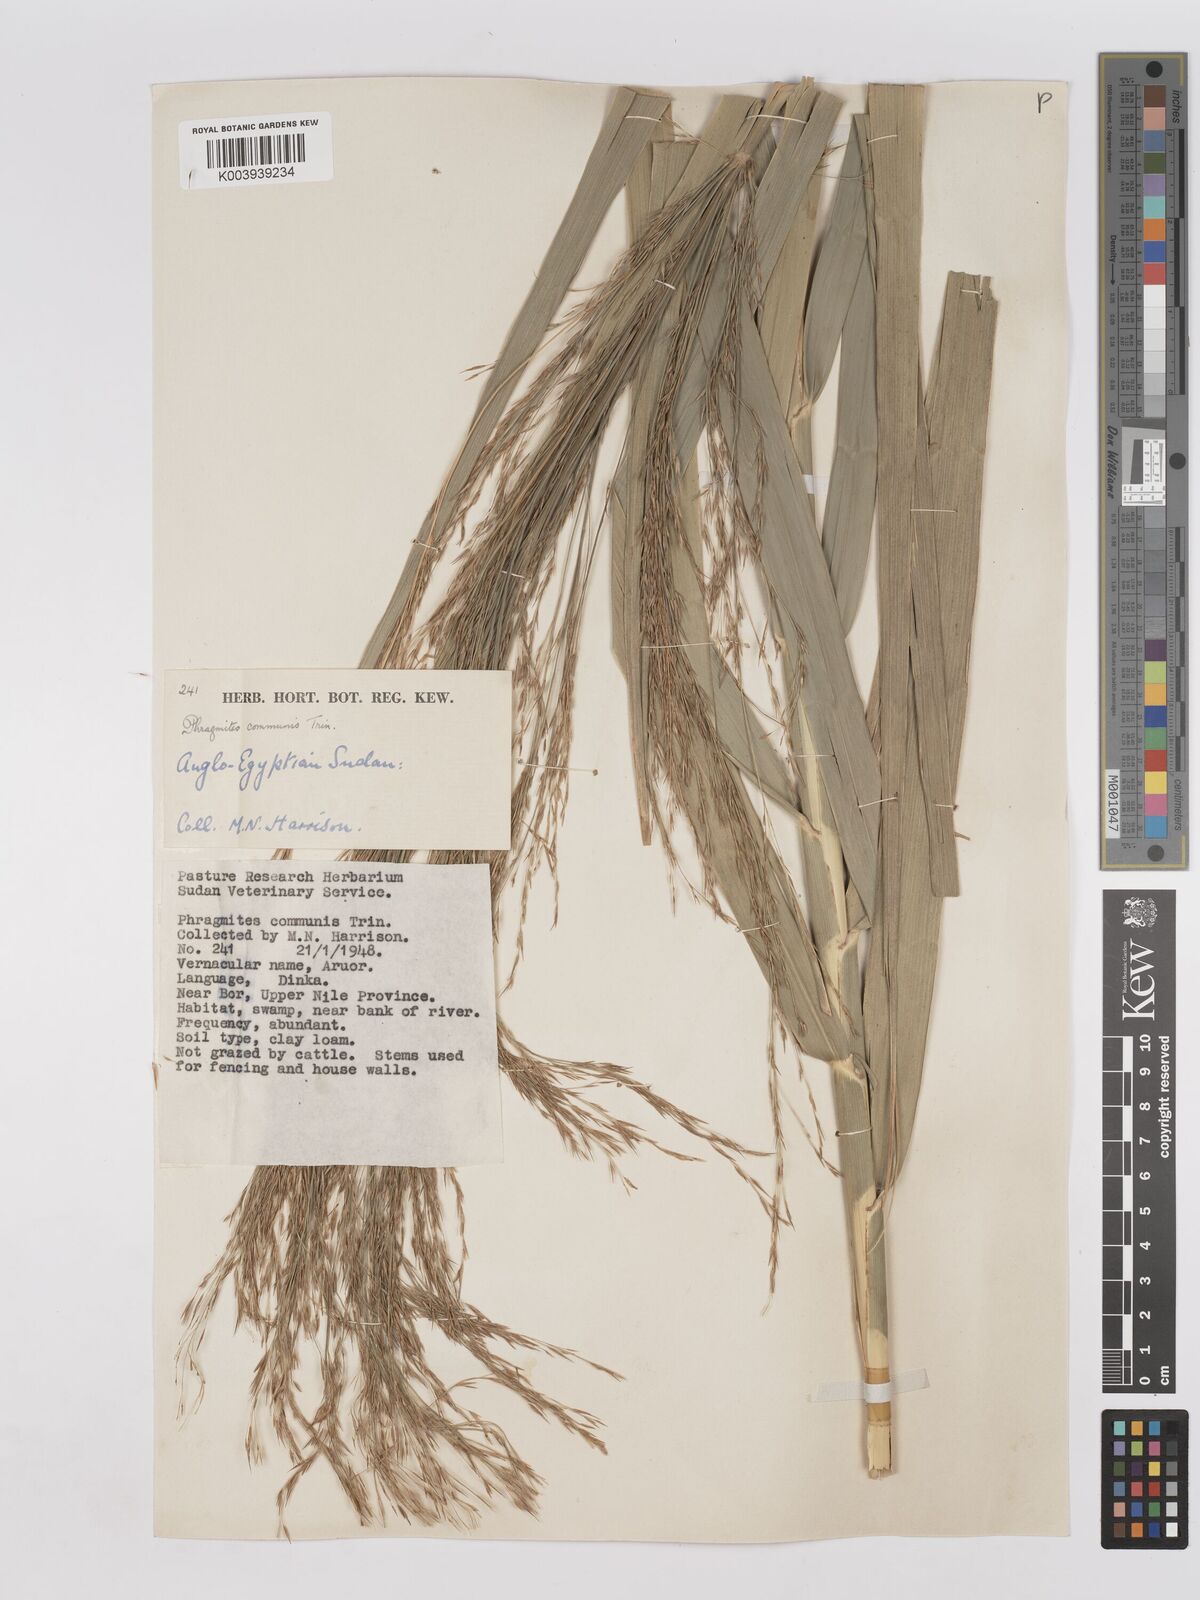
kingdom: Plantae
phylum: Tracheophyta
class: Liliopsida
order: Poales
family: Poaceae
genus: Phragmites
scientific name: Phragmites karka
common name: Tropical reed
